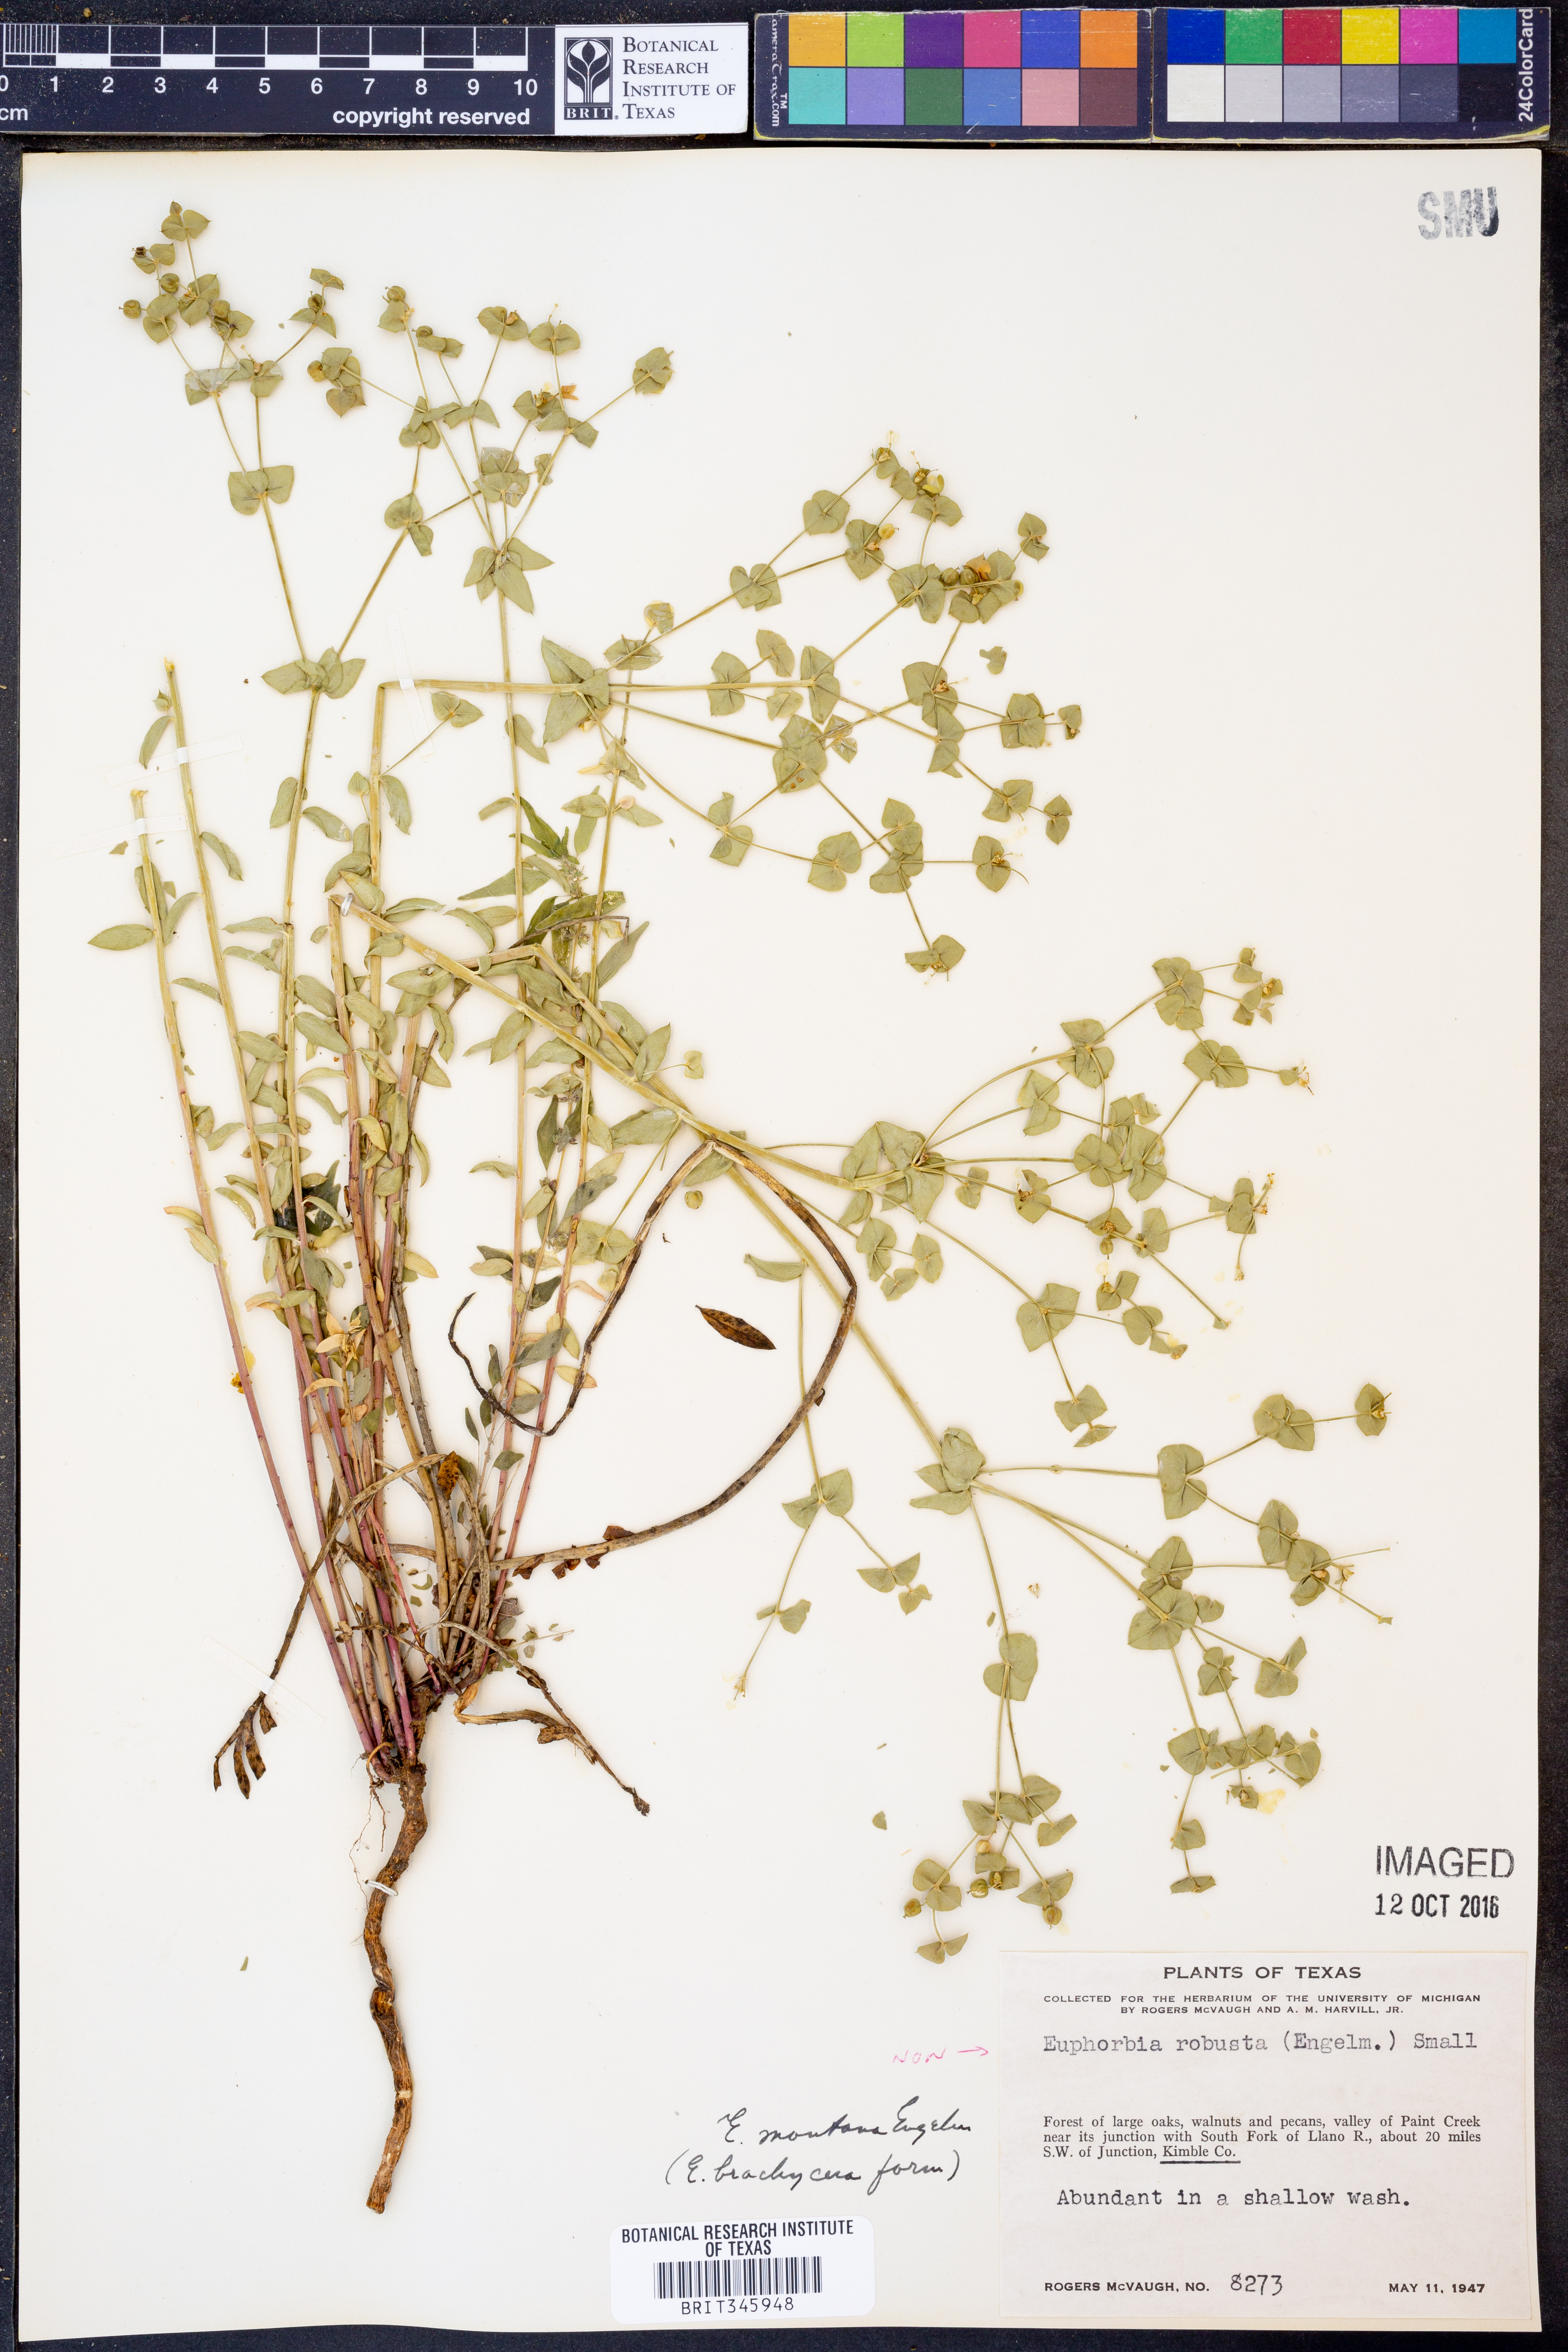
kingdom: Plantae
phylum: Tracheophyta
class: Magnoliopsida
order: Malpighiales
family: Euphorbiaceae
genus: Euphorbia
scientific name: Euphorbia brachycera
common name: Shorthorn spurge
